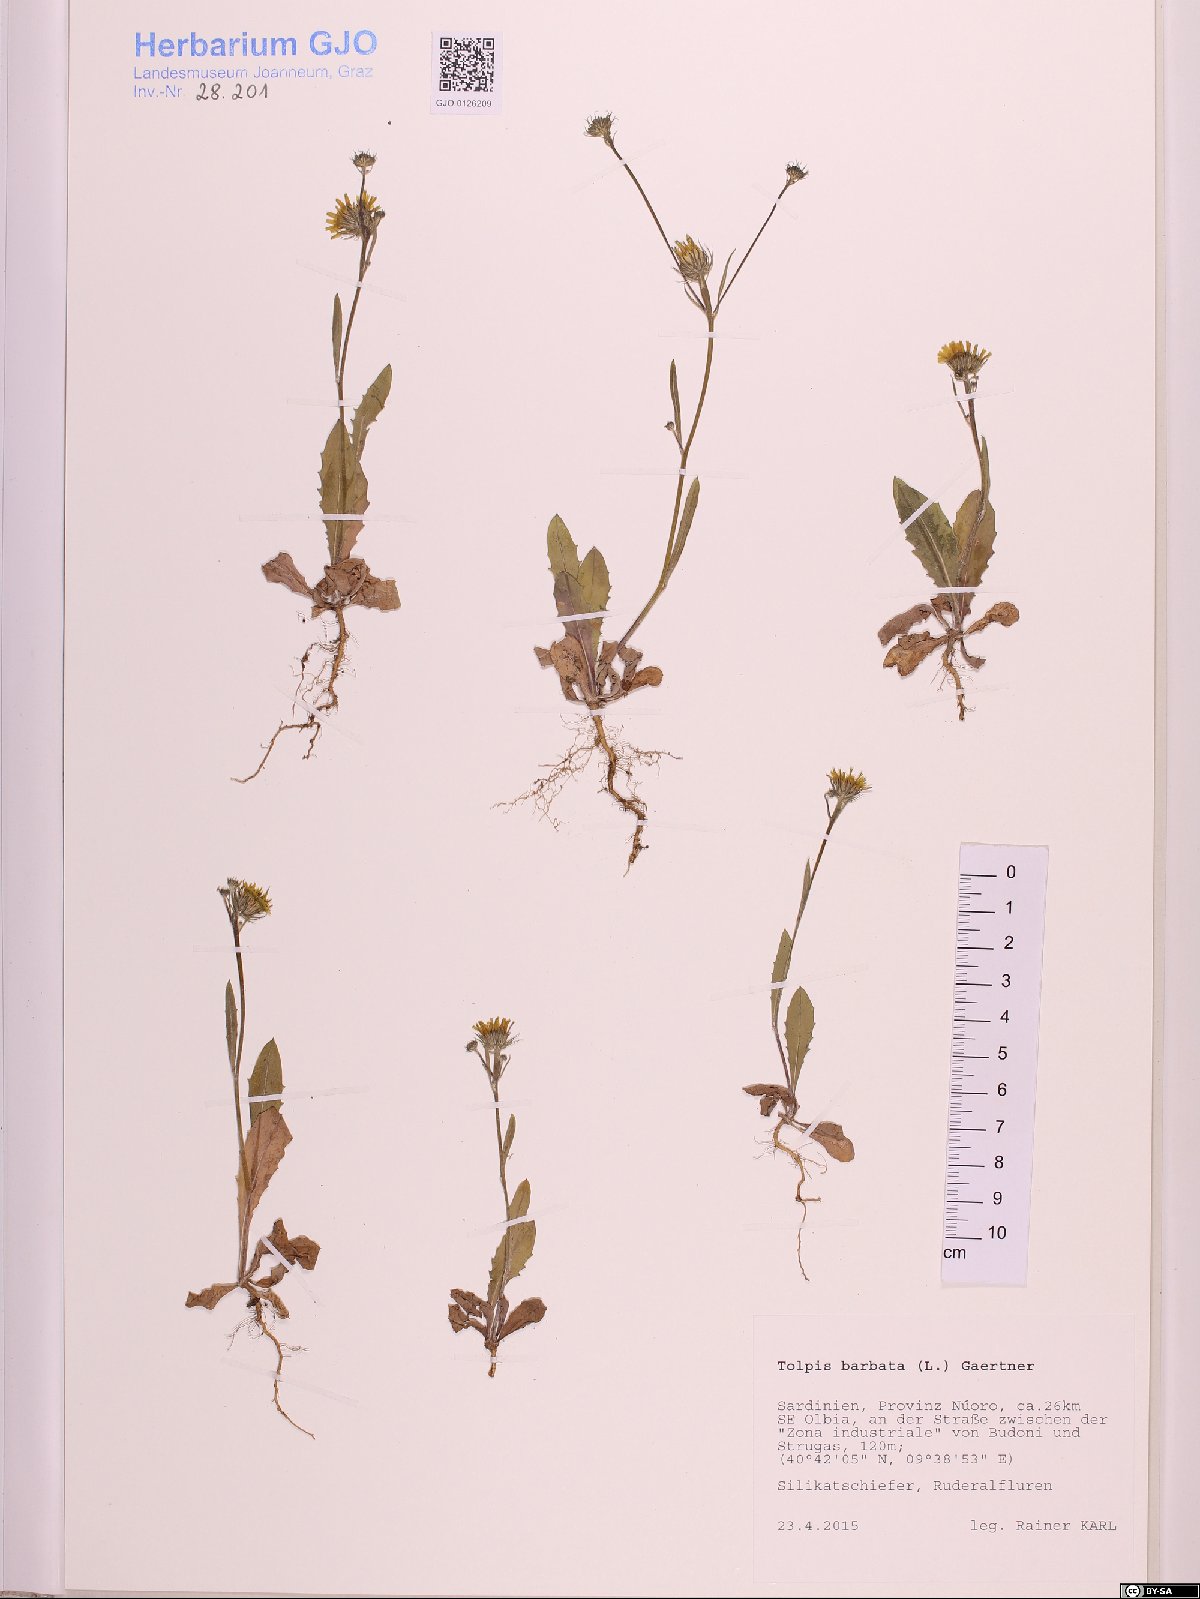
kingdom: Plantae
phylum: Tracheophyta
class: Magnoliopsida
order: Asterales
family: Asteraceae
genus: Tolpis
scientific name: Tolpis barbata
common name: Yellow hawkweed
